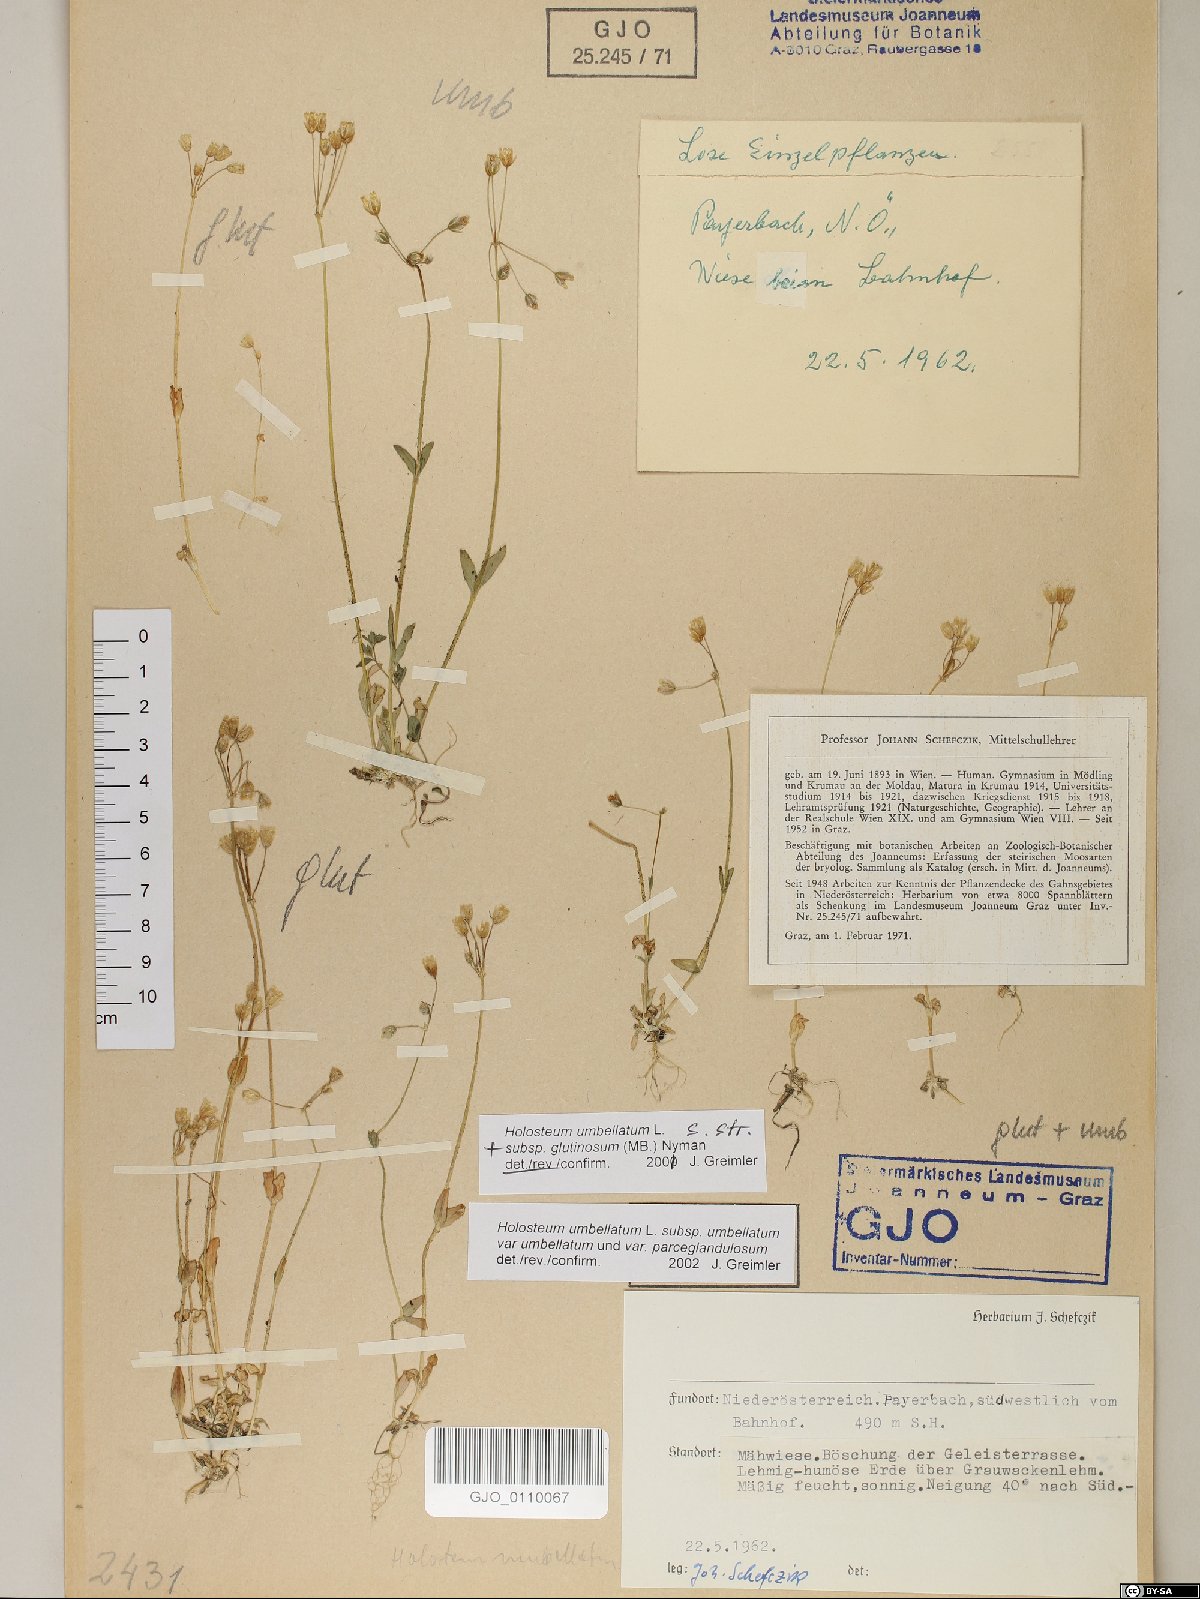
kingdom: Plantae
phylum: Tracheophyta
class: Magnoliopsida
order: Caryophyllales
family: Caryophyllaceae
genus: Holosteum
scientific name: Holosteum umbellatum
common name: Jagged chickweed
